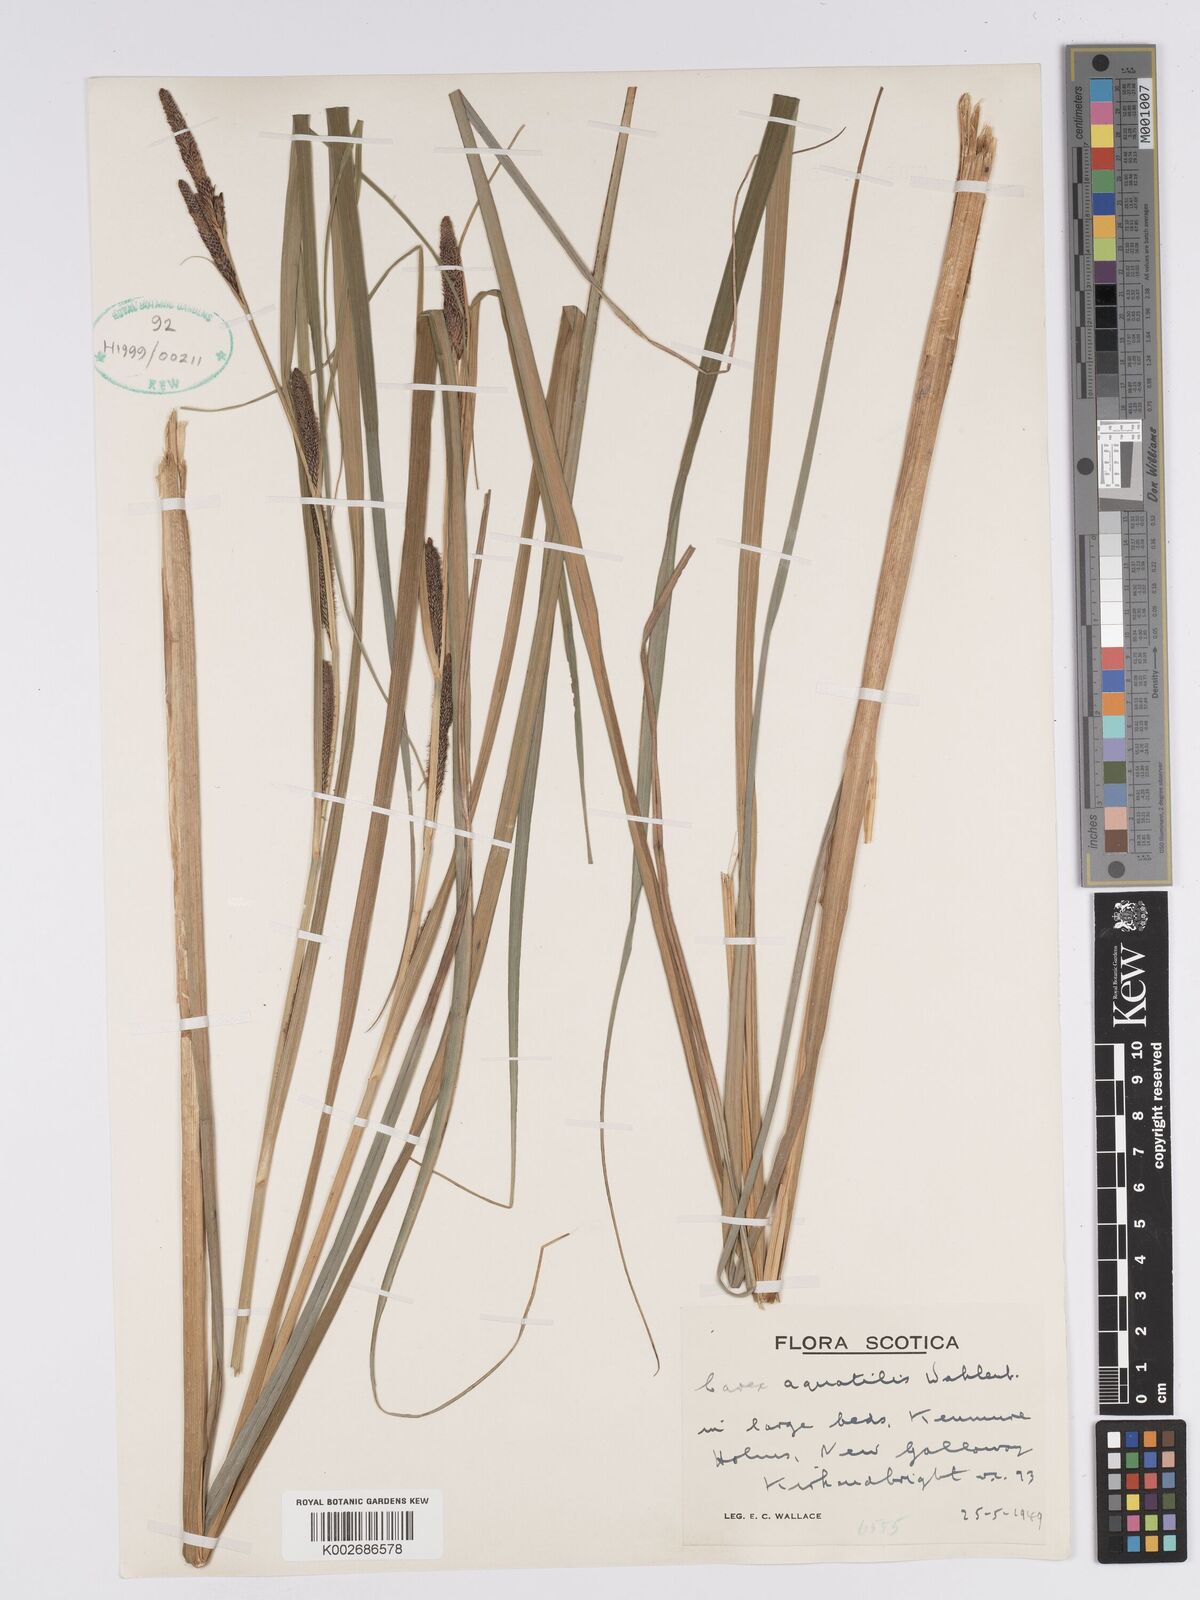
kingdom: Plantae
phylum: Tracheophyta
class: Liliopsida
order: Poales
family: Cyperaceae
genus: Carex
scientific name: Carex aquatilis
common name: Water sedge
